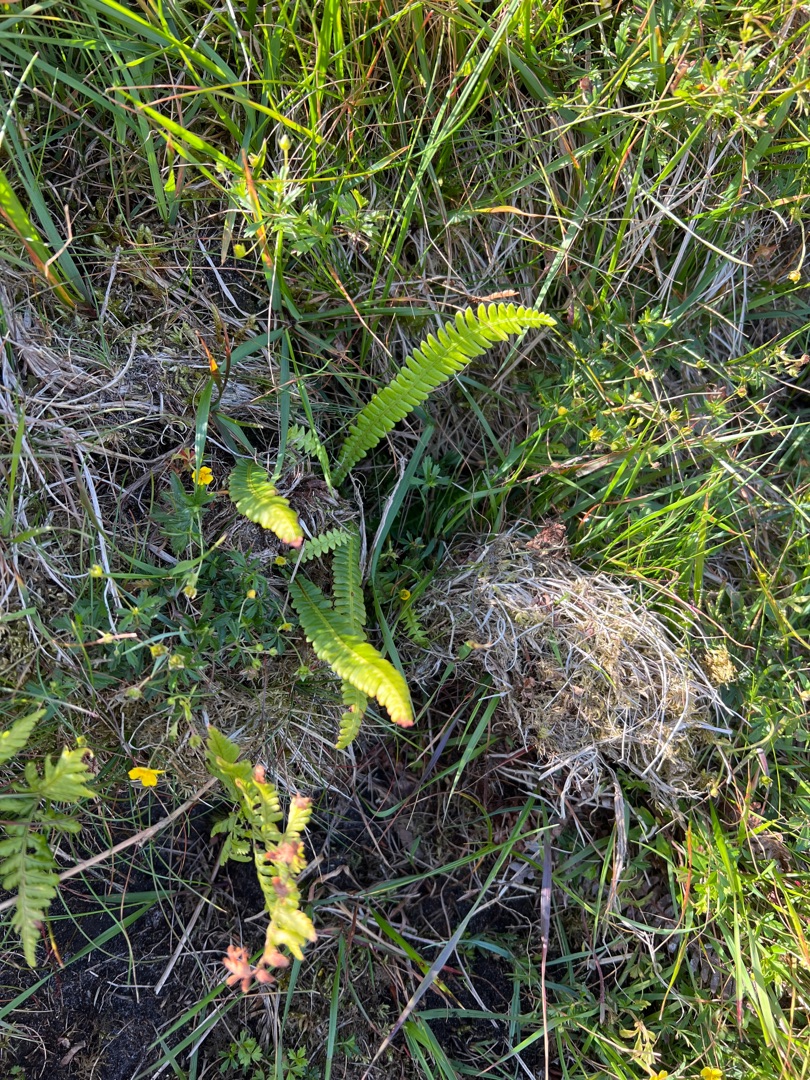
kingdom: Plantae
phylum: Tracheophyta
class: Polypodiopsida
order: Polypodiales
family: Blechnaceae
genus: Struthiopteris
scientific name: Struthiopteris spicant
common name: Kambregne
